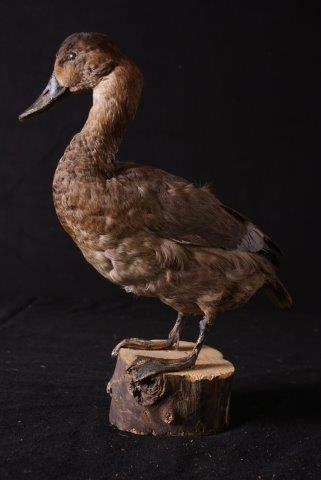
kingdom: Animalia
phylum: Chordata
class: Aves
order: Anseriformes
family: Anatidae
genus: Aythya
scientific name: Aythya ferina
